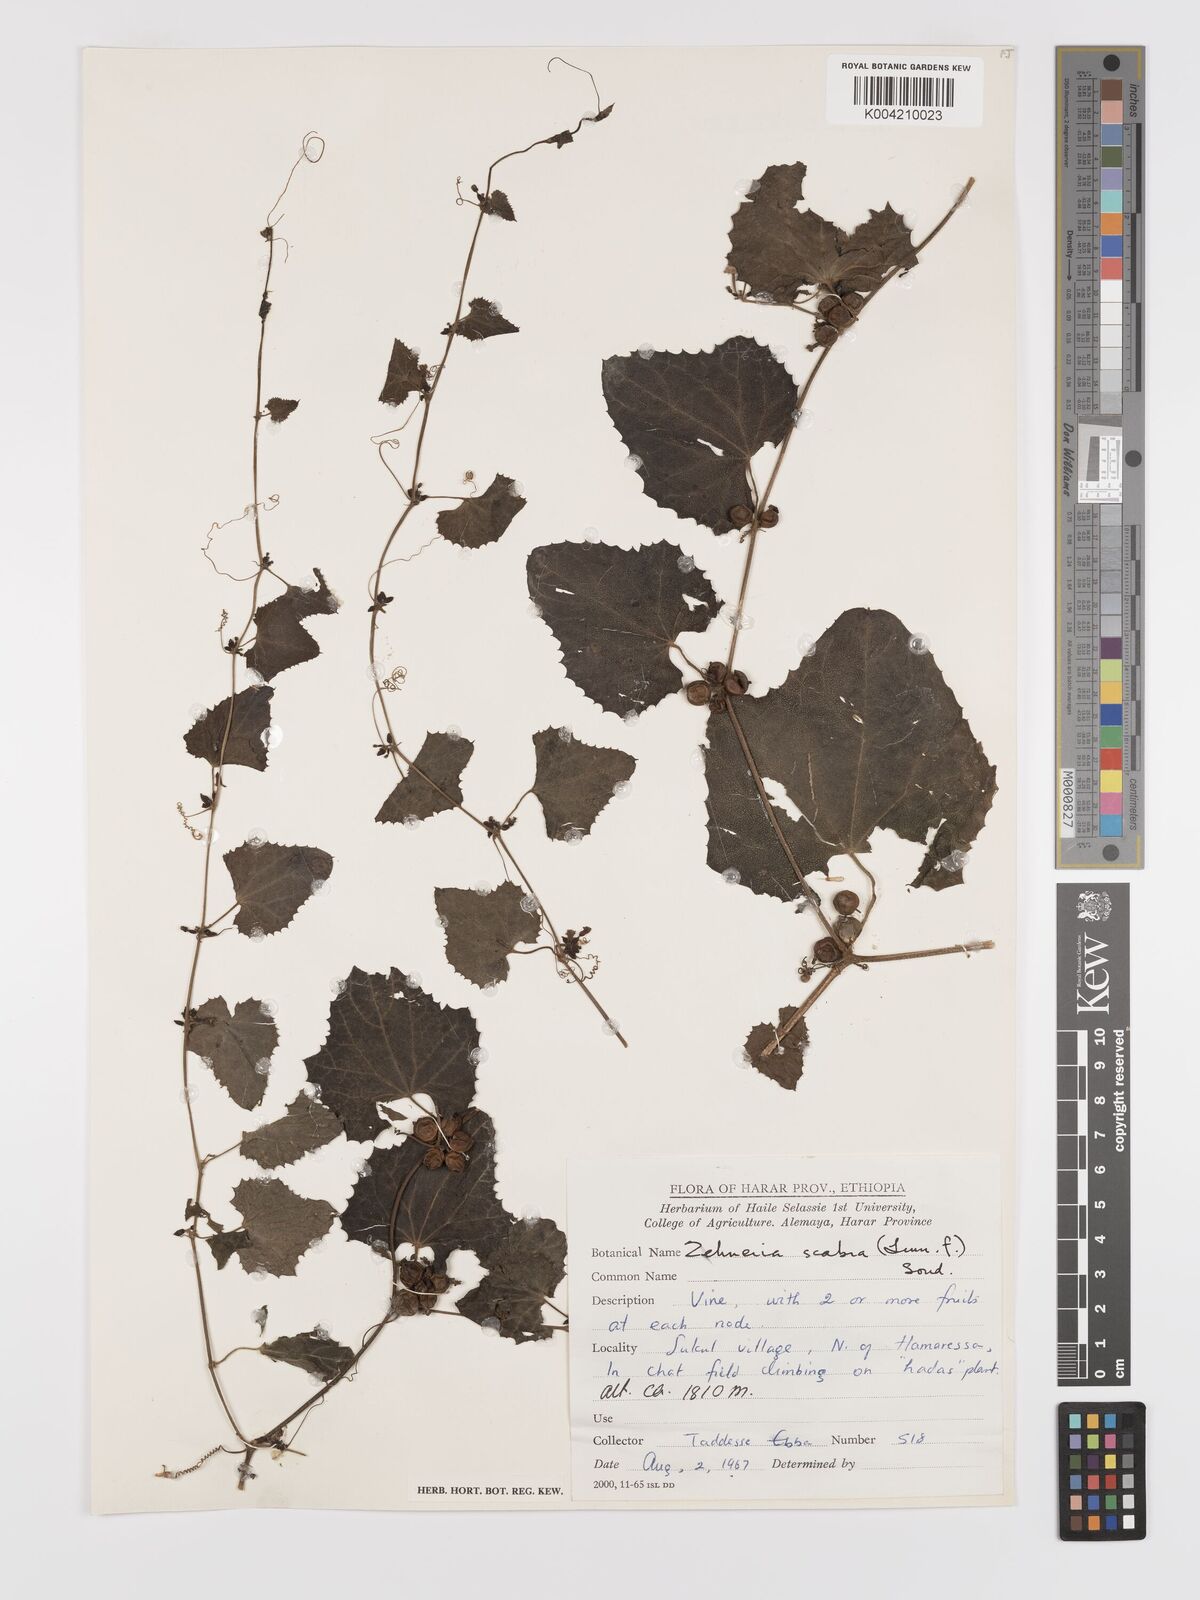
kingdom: Plantae
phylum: Tracheophyta
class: Magnoliopsida
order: Cucurbitales
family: Cucurbitaceae
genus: Zehneria
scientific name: Zehneria scabra
